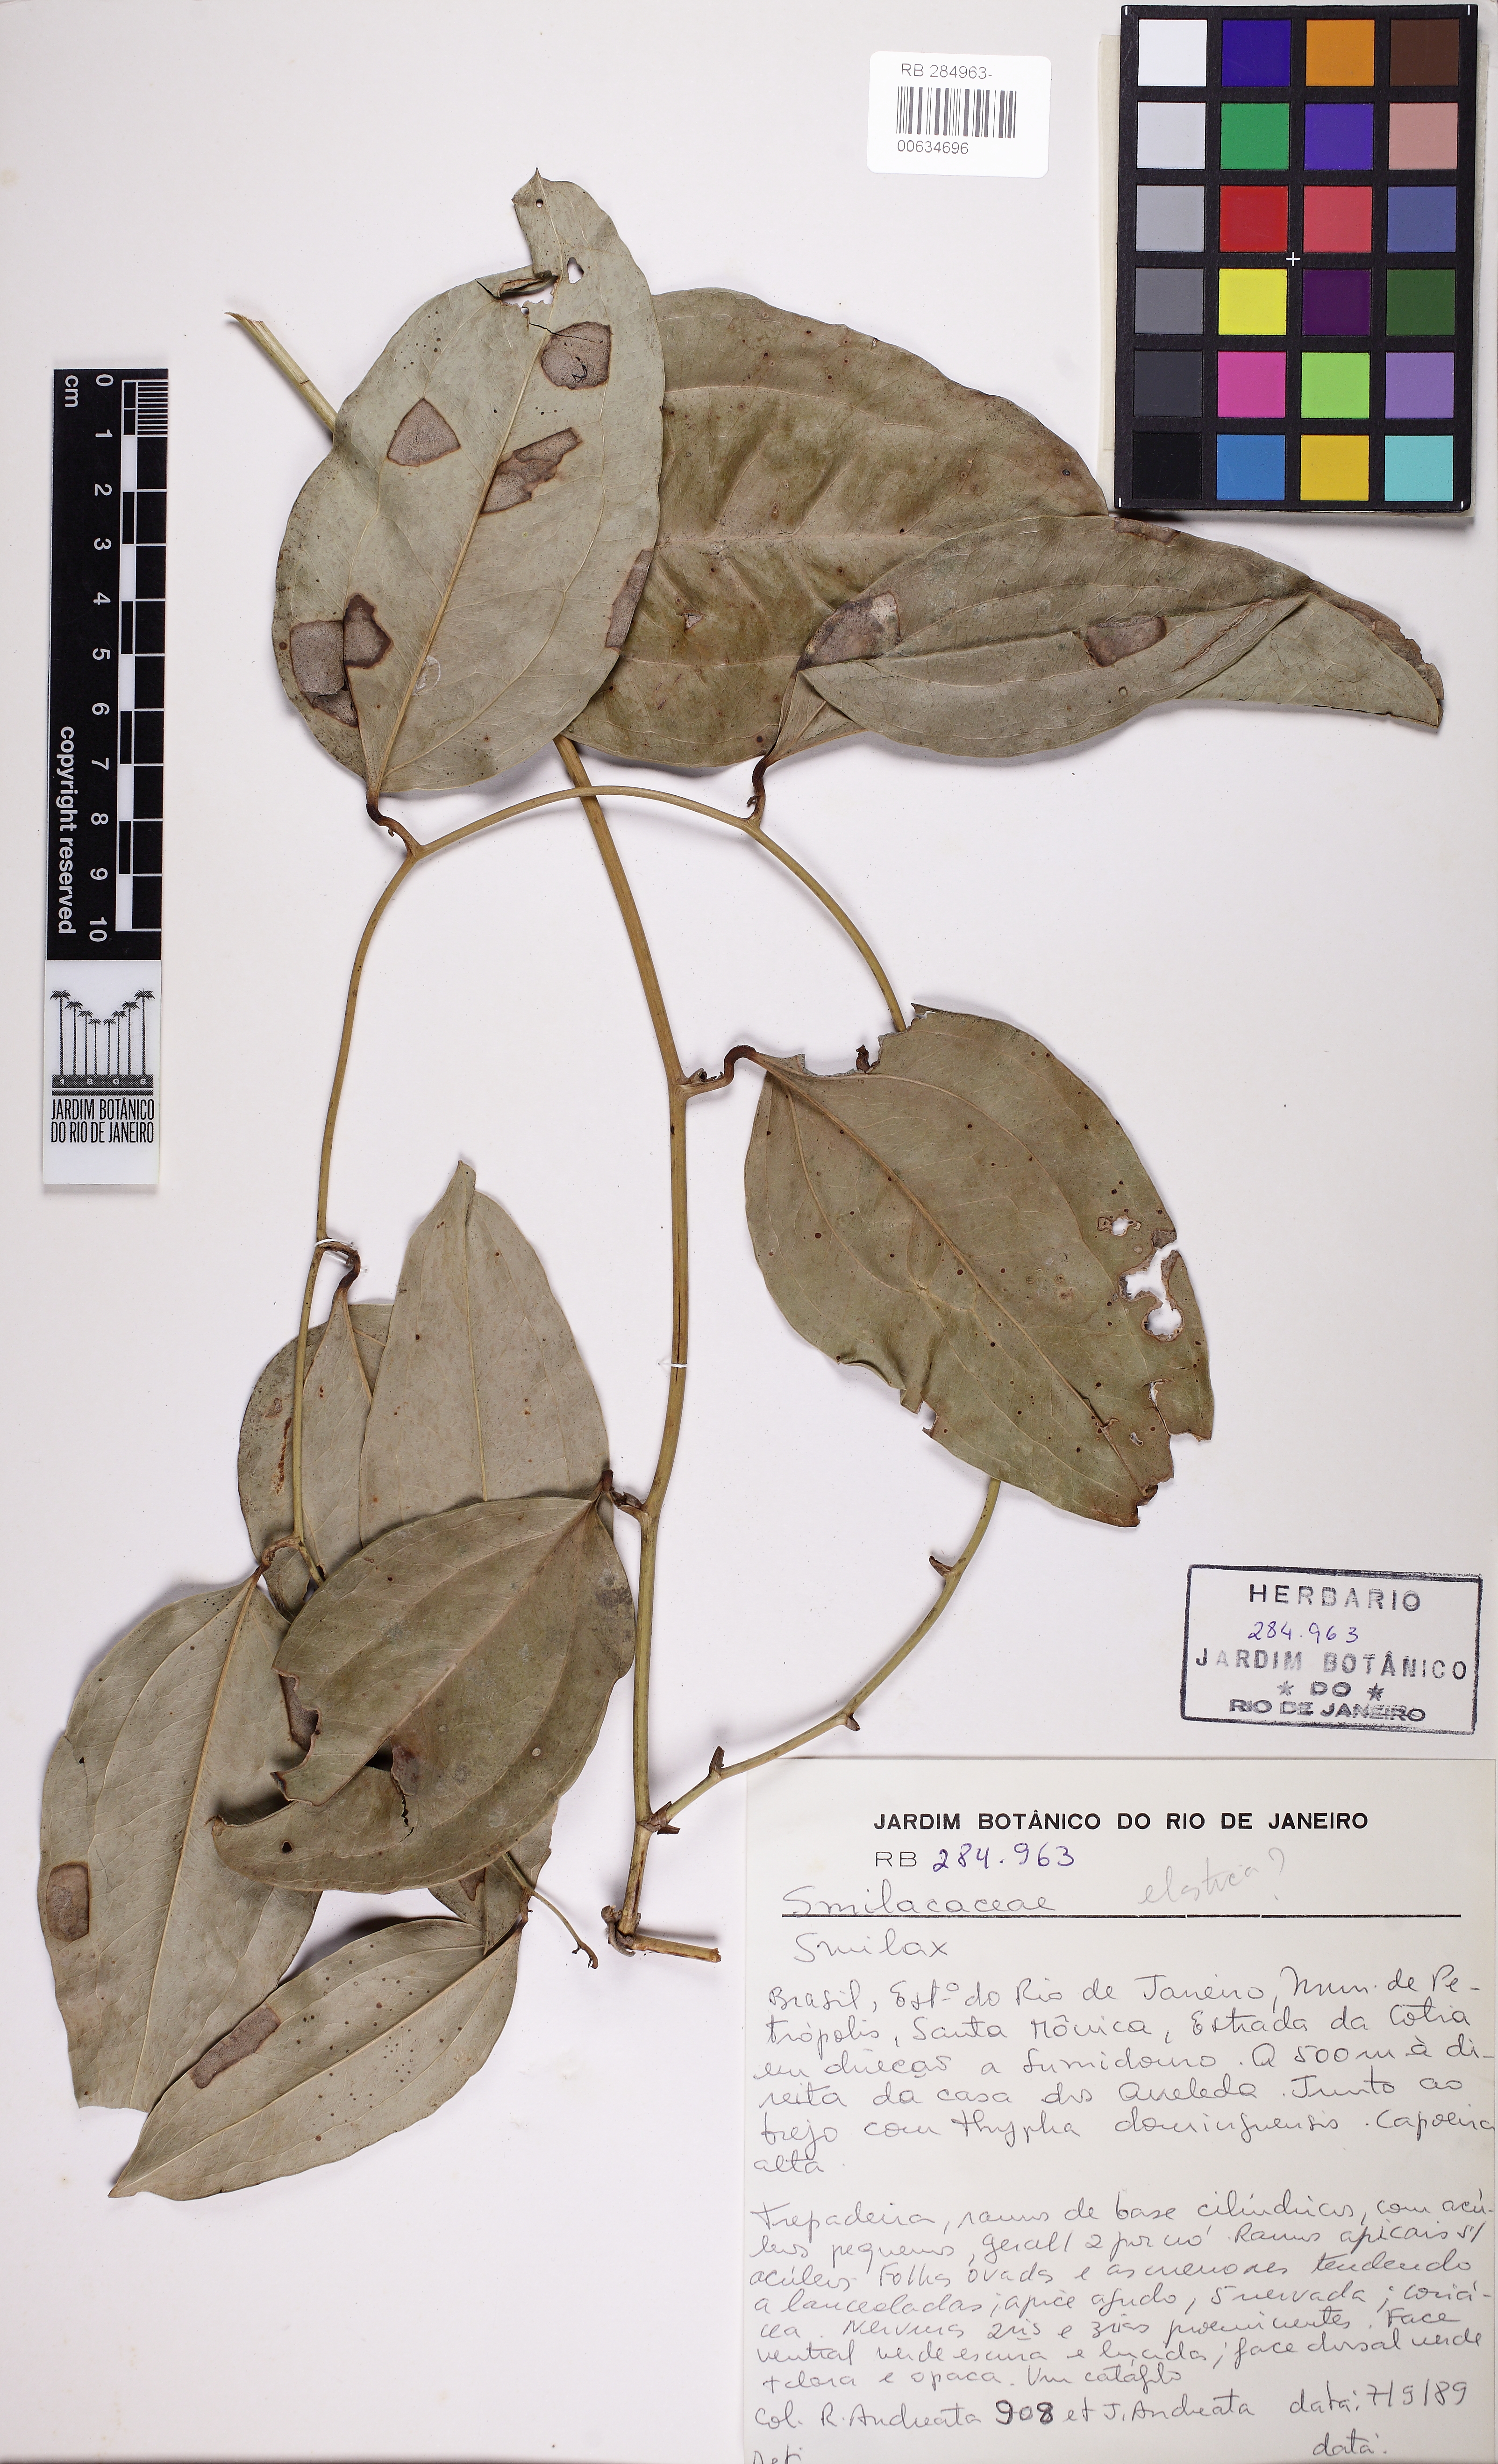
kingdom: Plantae
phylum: Tracheophyta
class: Liliopsida
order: Liliales
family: Smilacaceae
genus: Smilax
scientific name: Smilax
